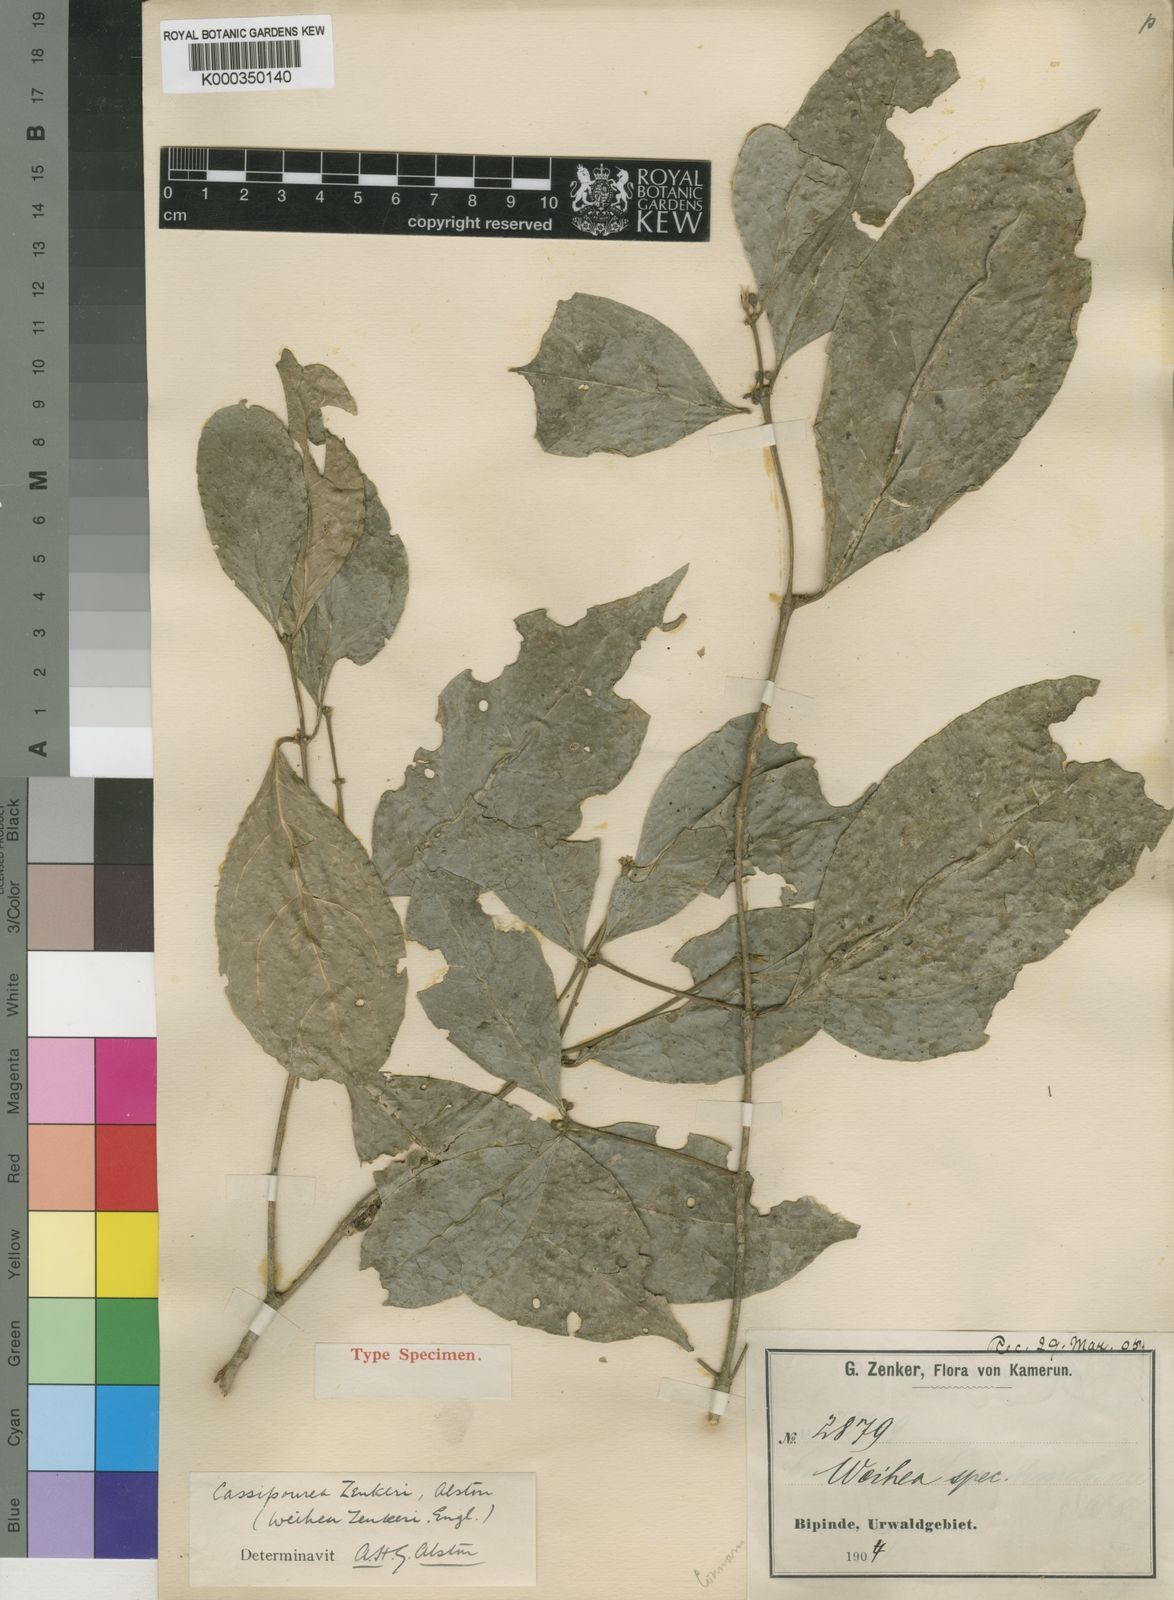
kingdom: Plantae
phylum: Tracheophyta
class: Magnoliopsida
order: Malpighiales
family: Rhizophoraceae
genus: Cassipourea
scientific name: Cassipourea zenkeri
